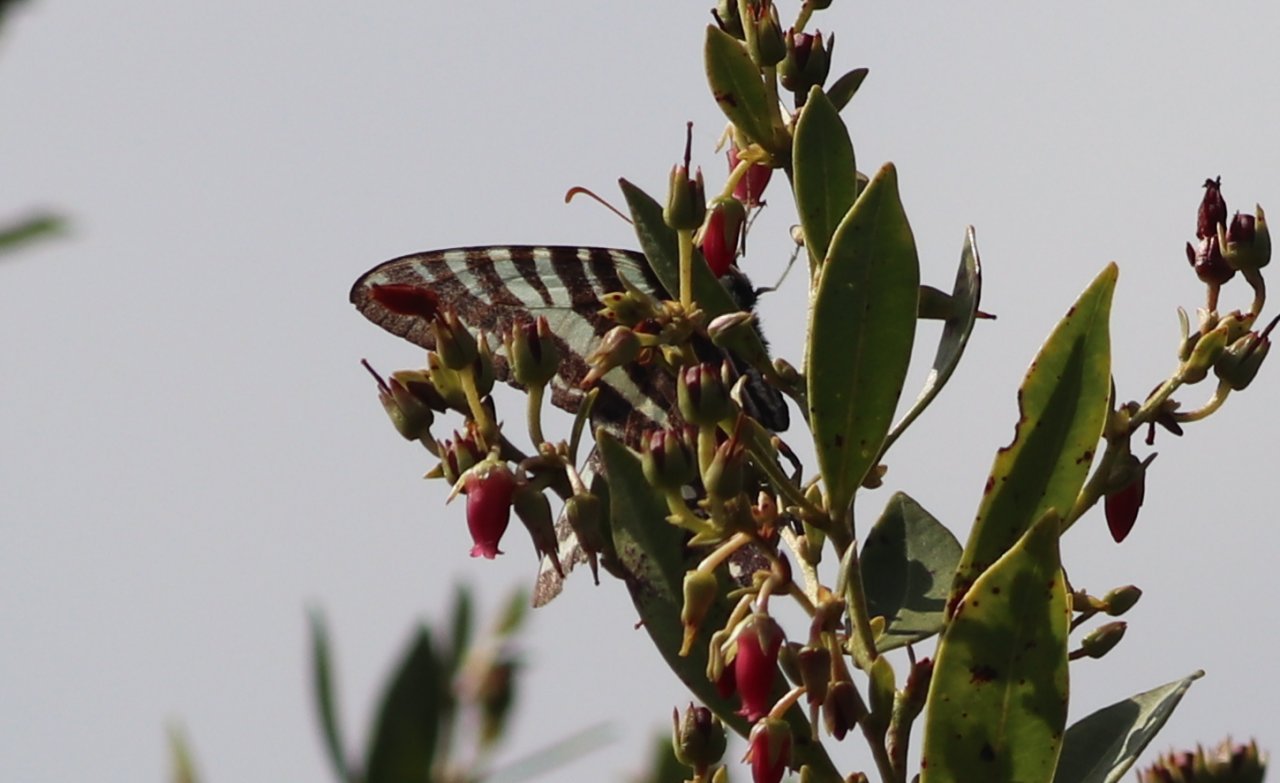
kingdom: Animalia
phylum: Arthropoda
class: Insecta
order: Lepidoptera
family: Nymphalidae
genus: Heliconius
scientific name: Heliconius charithonia
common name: Zebra Longwing
